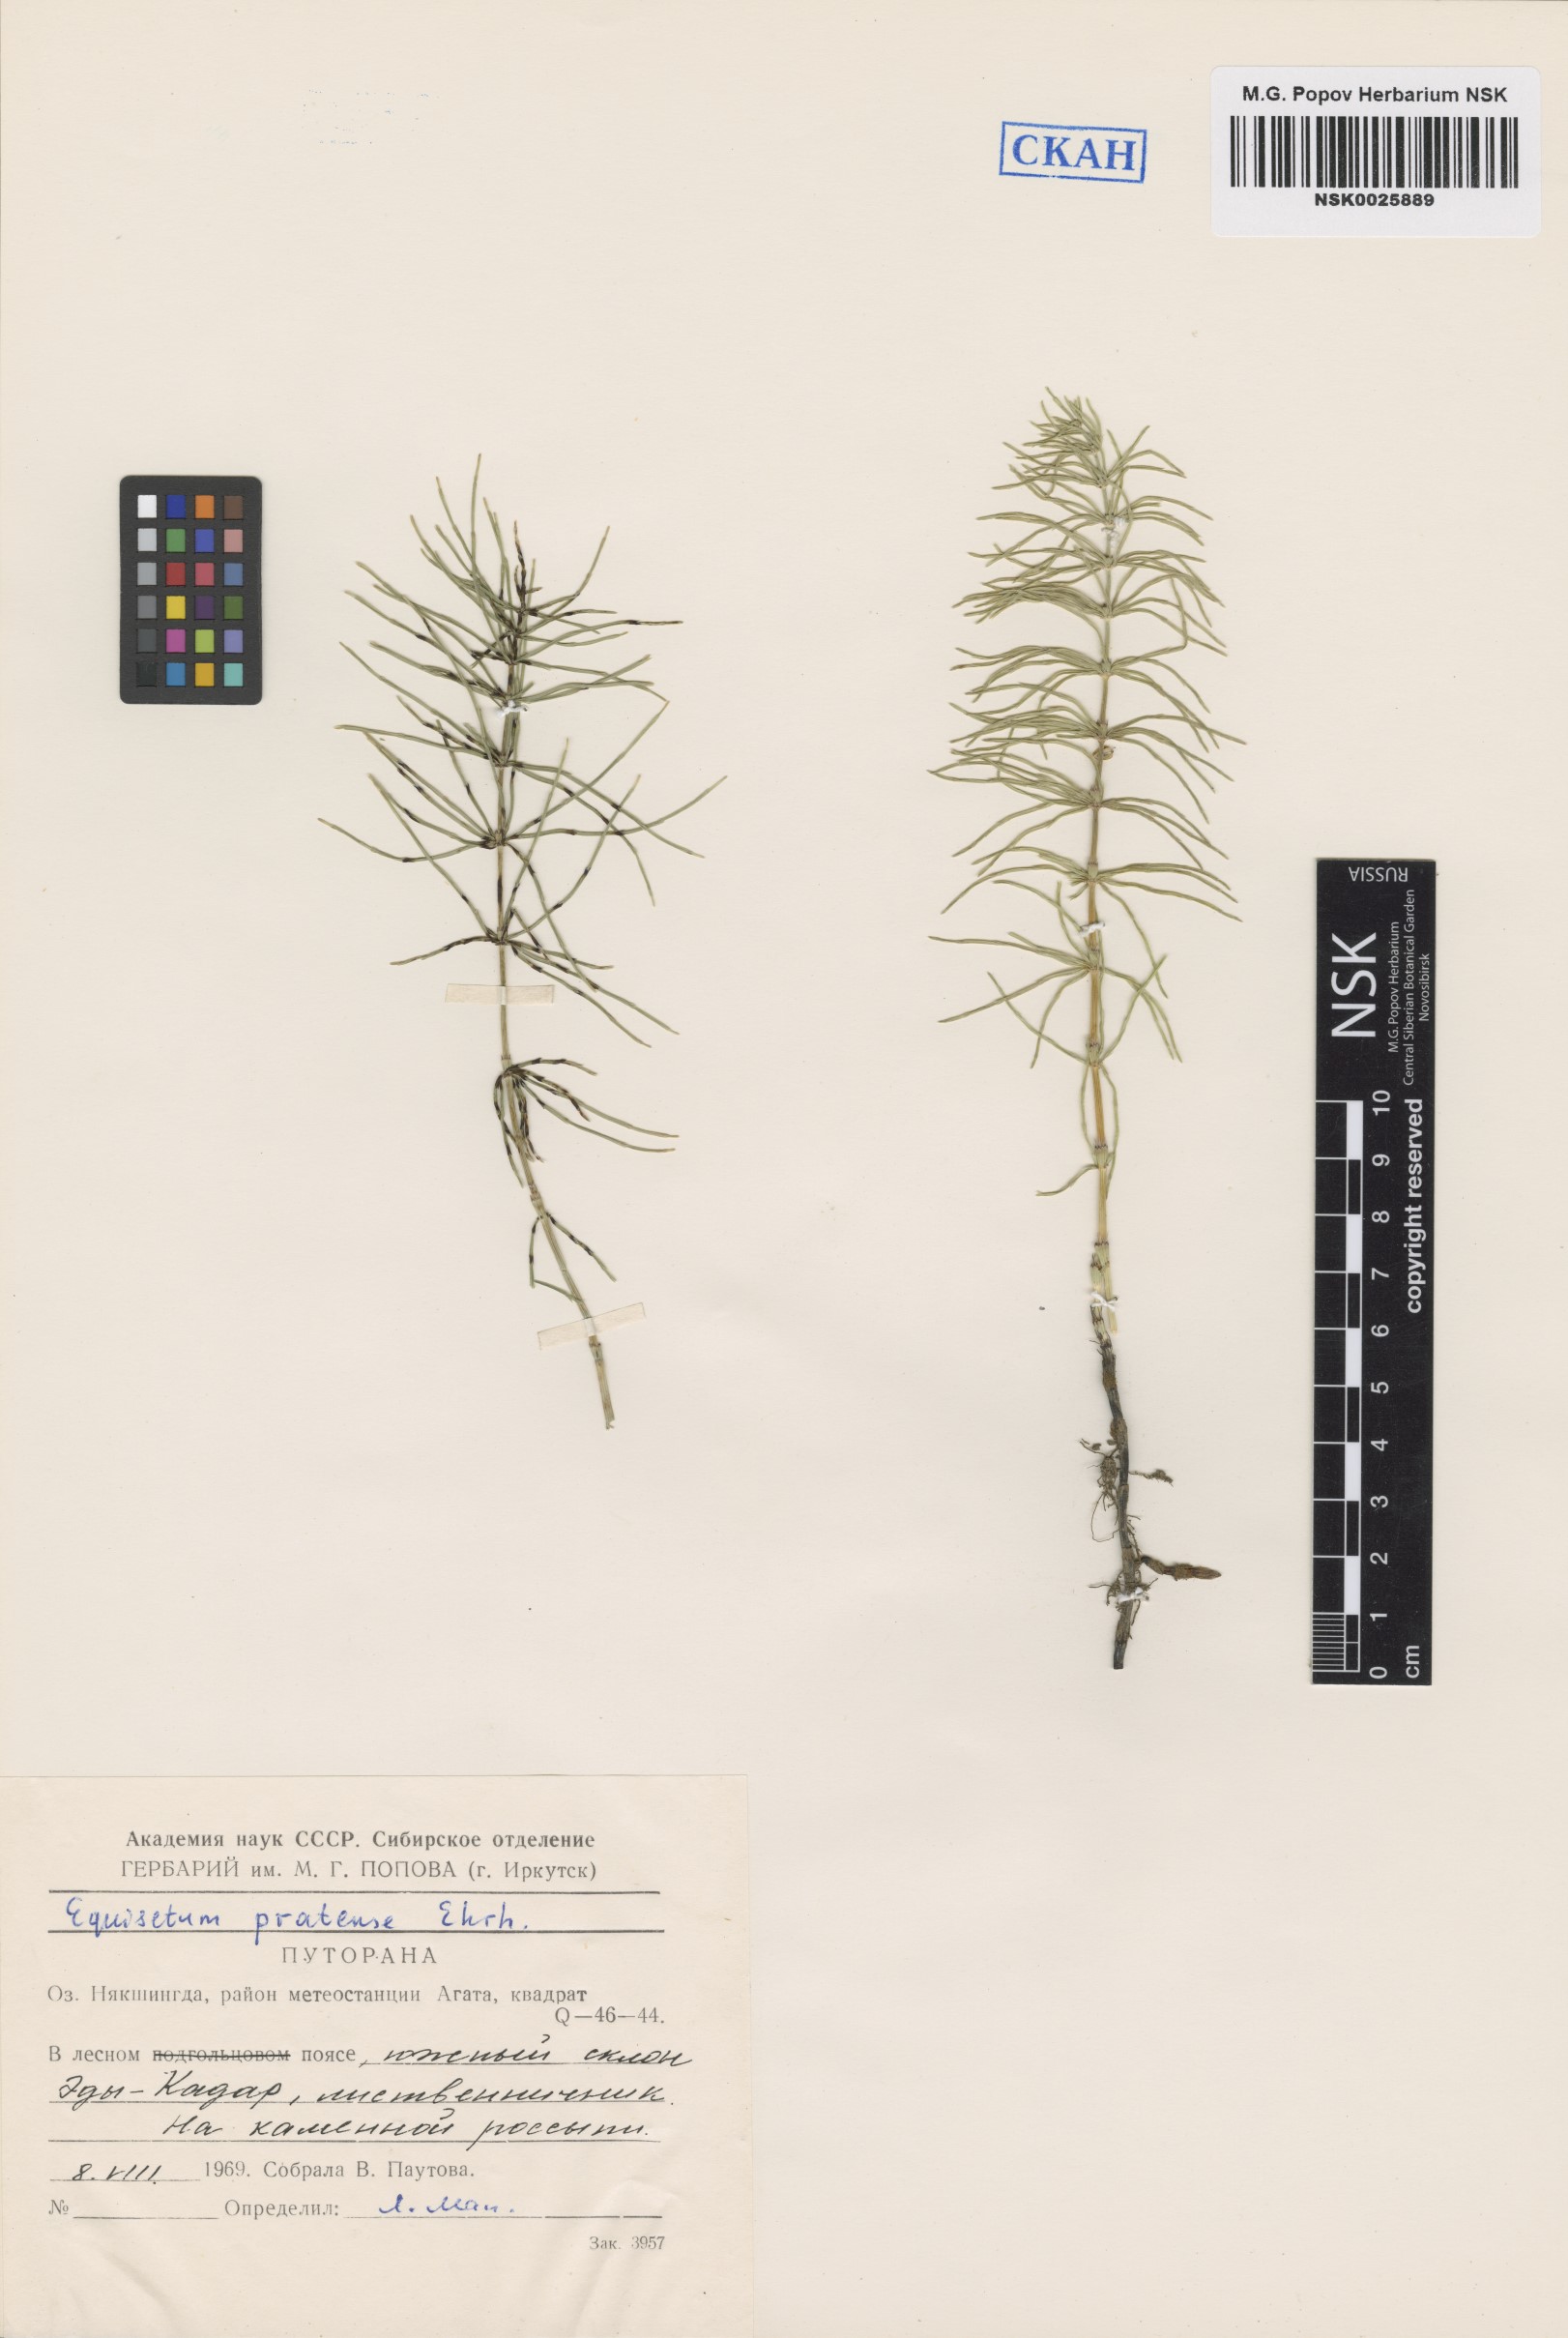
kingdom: Plantae
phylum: Tracheophyta
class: Polypodiopsida
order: Equisetales
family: Equisetaceae
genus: Equisetum
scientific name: Equisetum pratense
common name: Meadow horsetail
